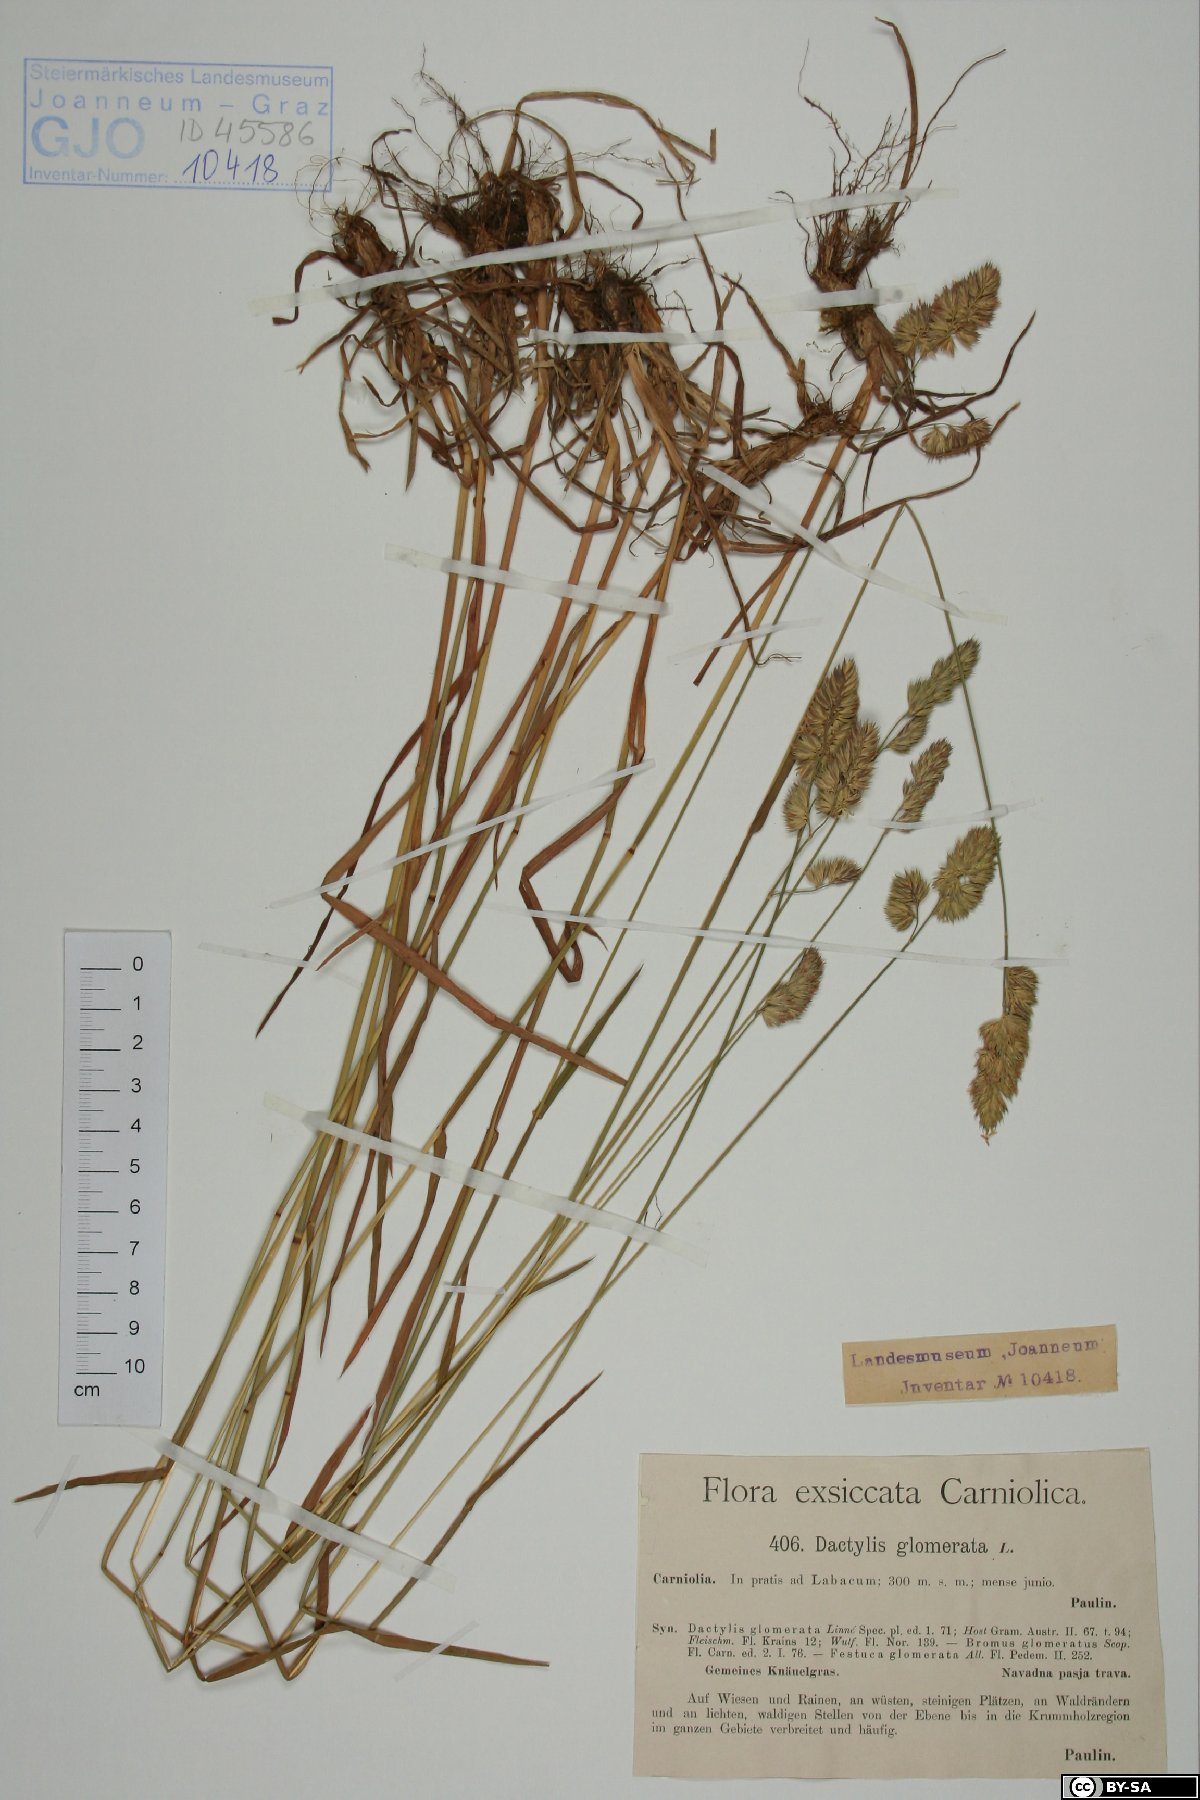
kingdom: Plantae
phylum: Tracheophyta
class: Liliopsida
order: Poales
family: Poaceae
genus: Dactylis
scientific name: Dactylis glomerata
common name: Orchardgrass
